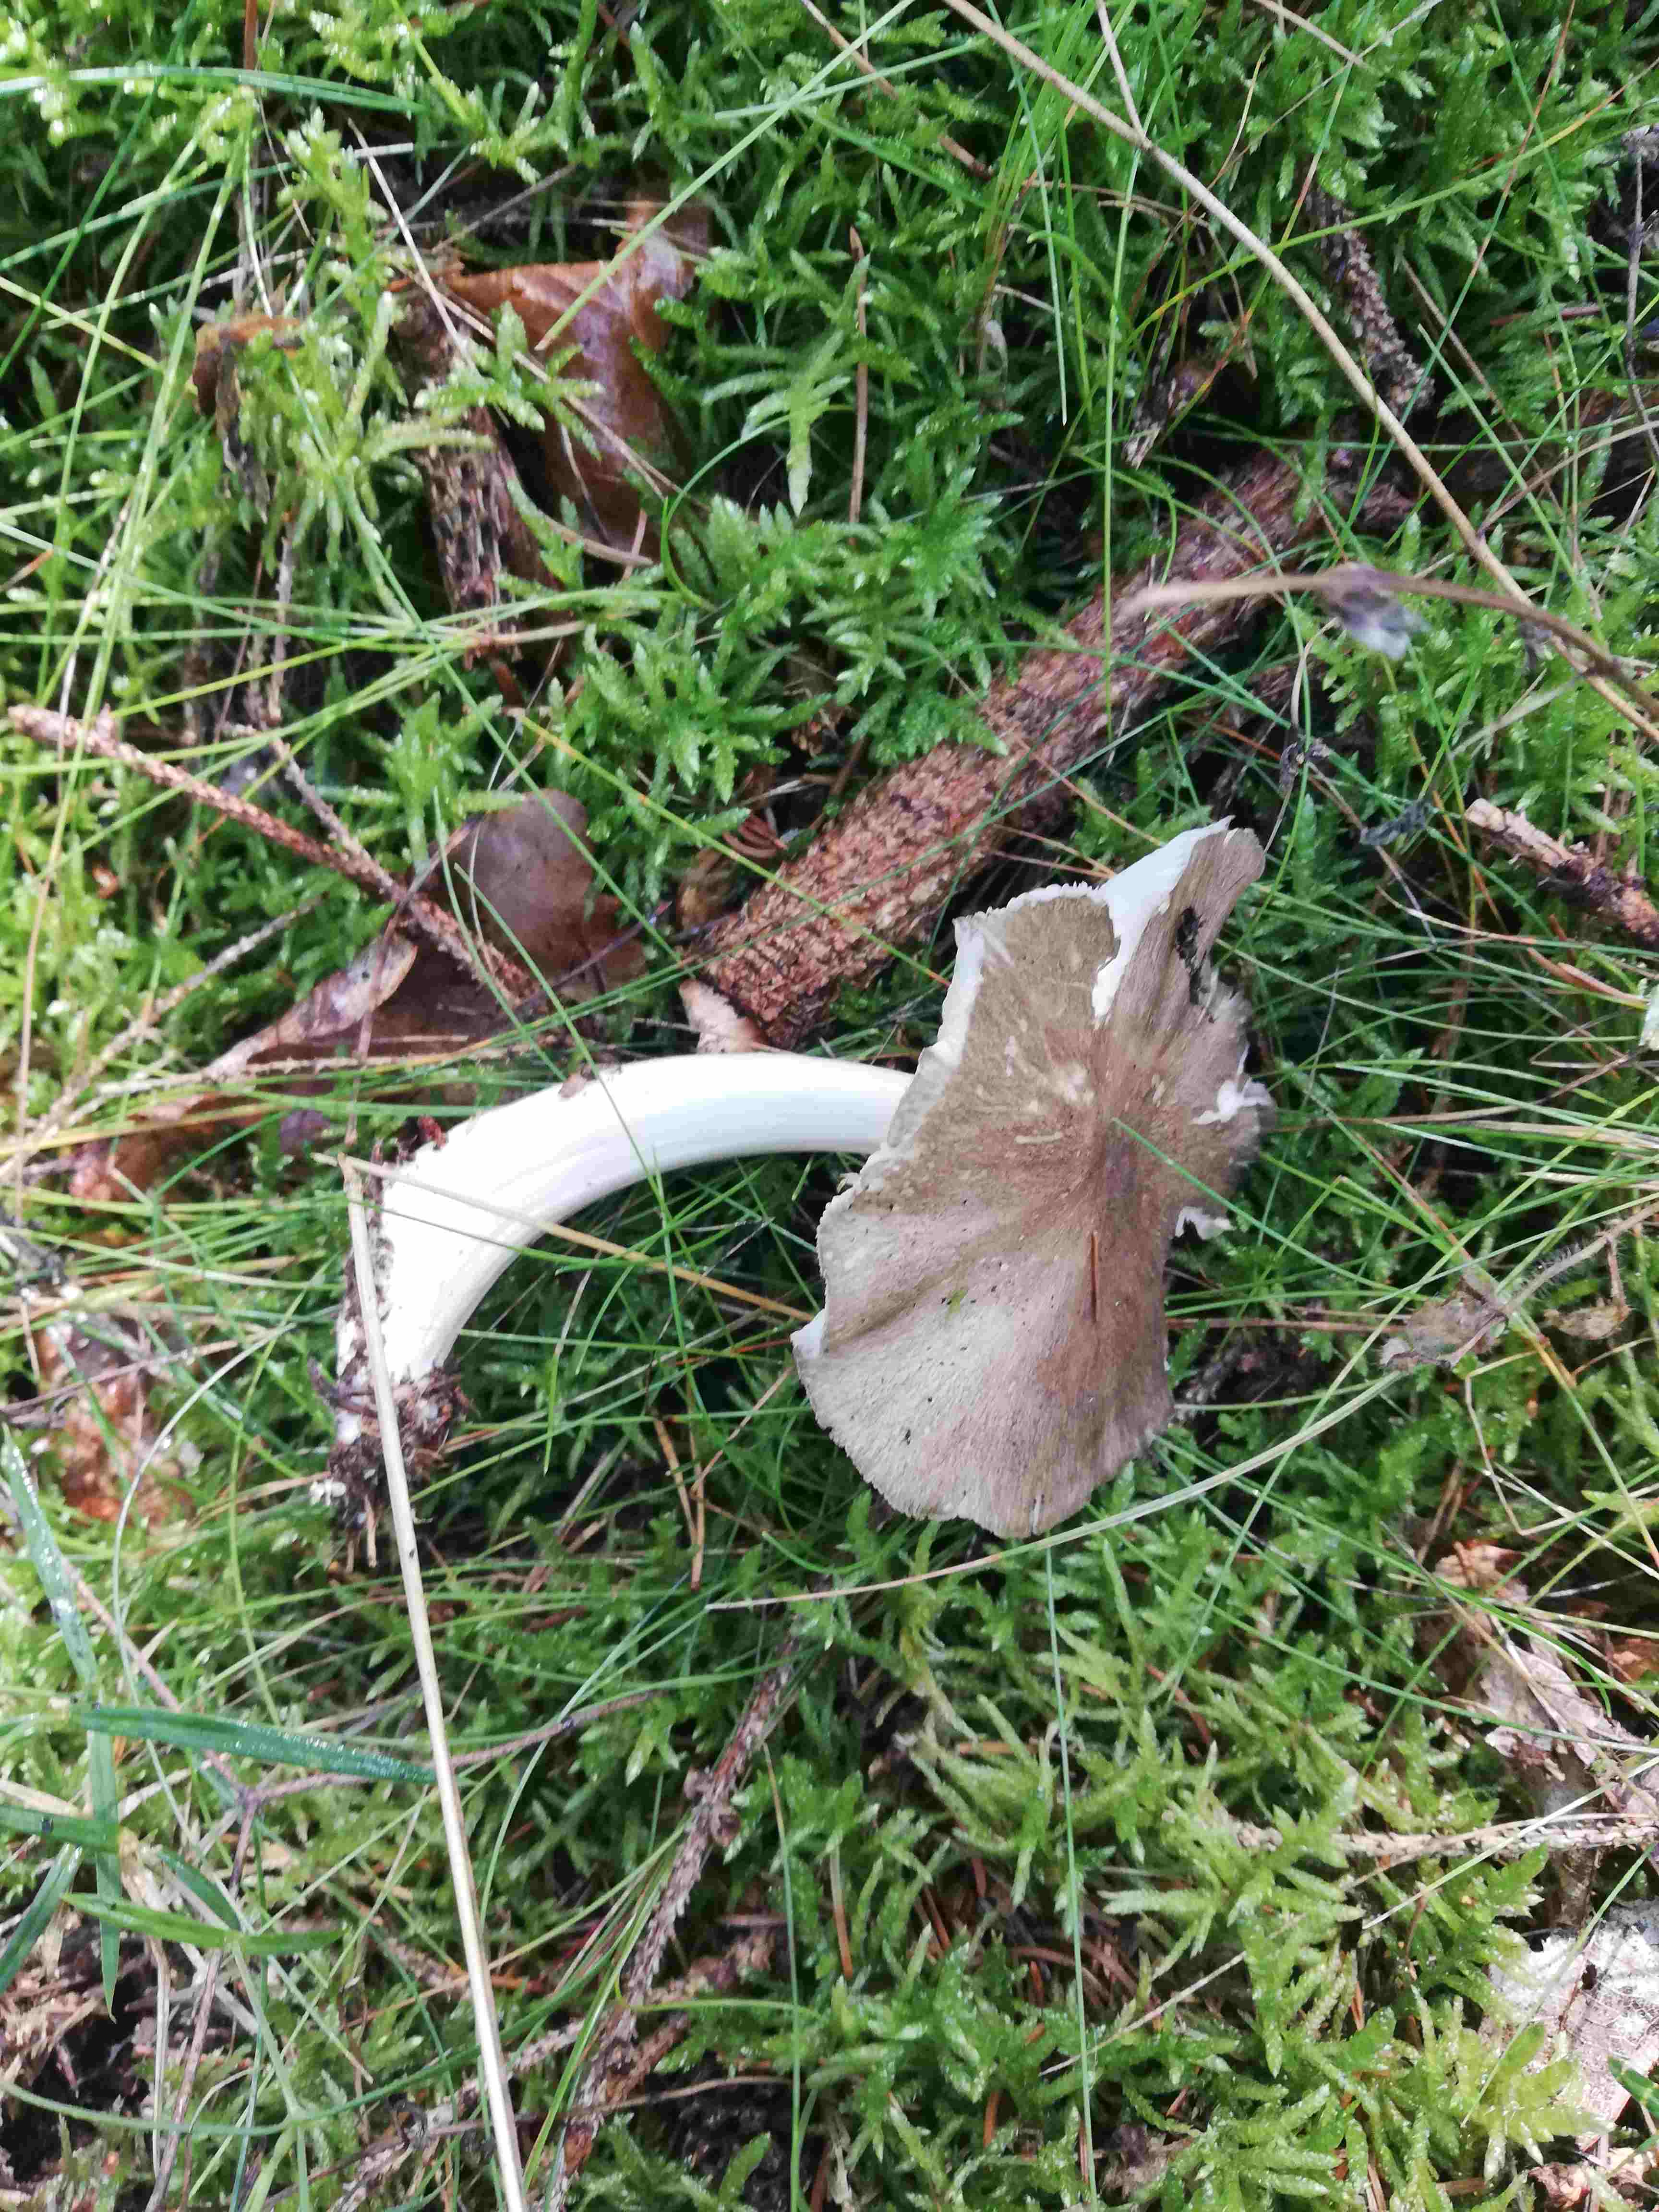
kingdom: Fungi
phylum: Basidiomycota
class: Agaricomycetes
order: Agaricales
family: Tricholomataceae
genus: Megacollybia
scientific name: Megacollybia platyphylla
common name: bredbladet væbnerhat
